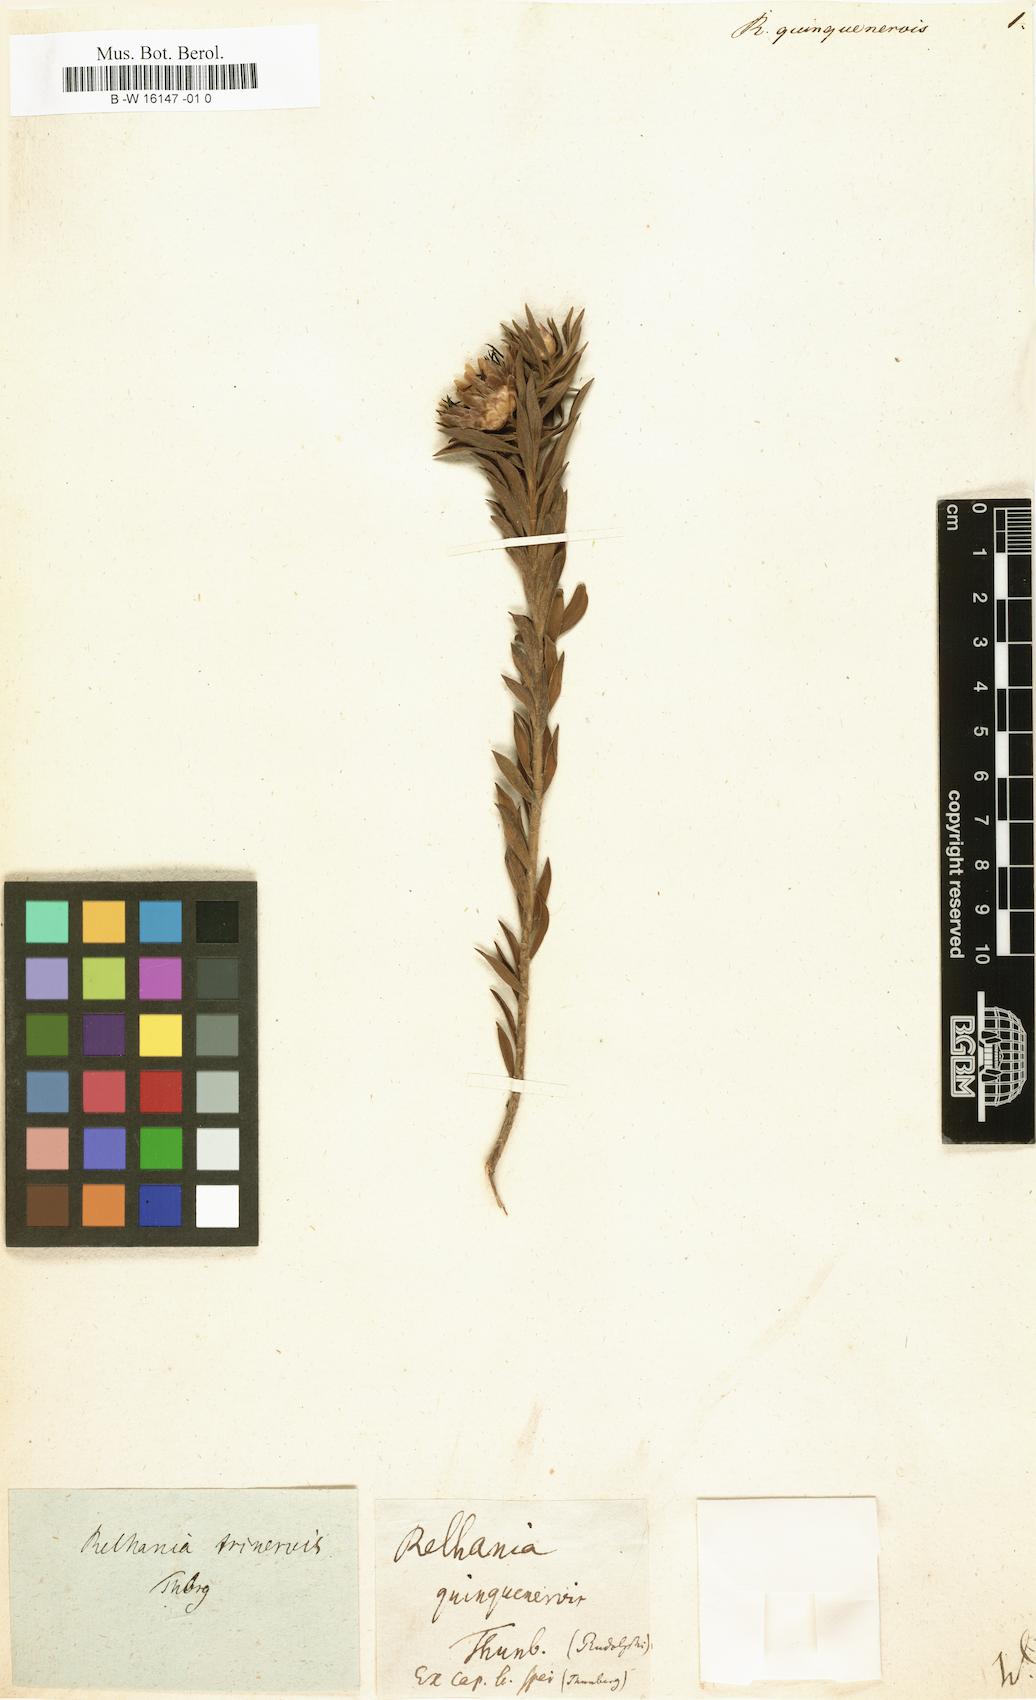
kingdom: Plantae
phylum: Tracheophyta
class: Magnoliopsida
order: Asterales
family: Asteraceae
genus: Oedera
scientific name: Oedera calycina
